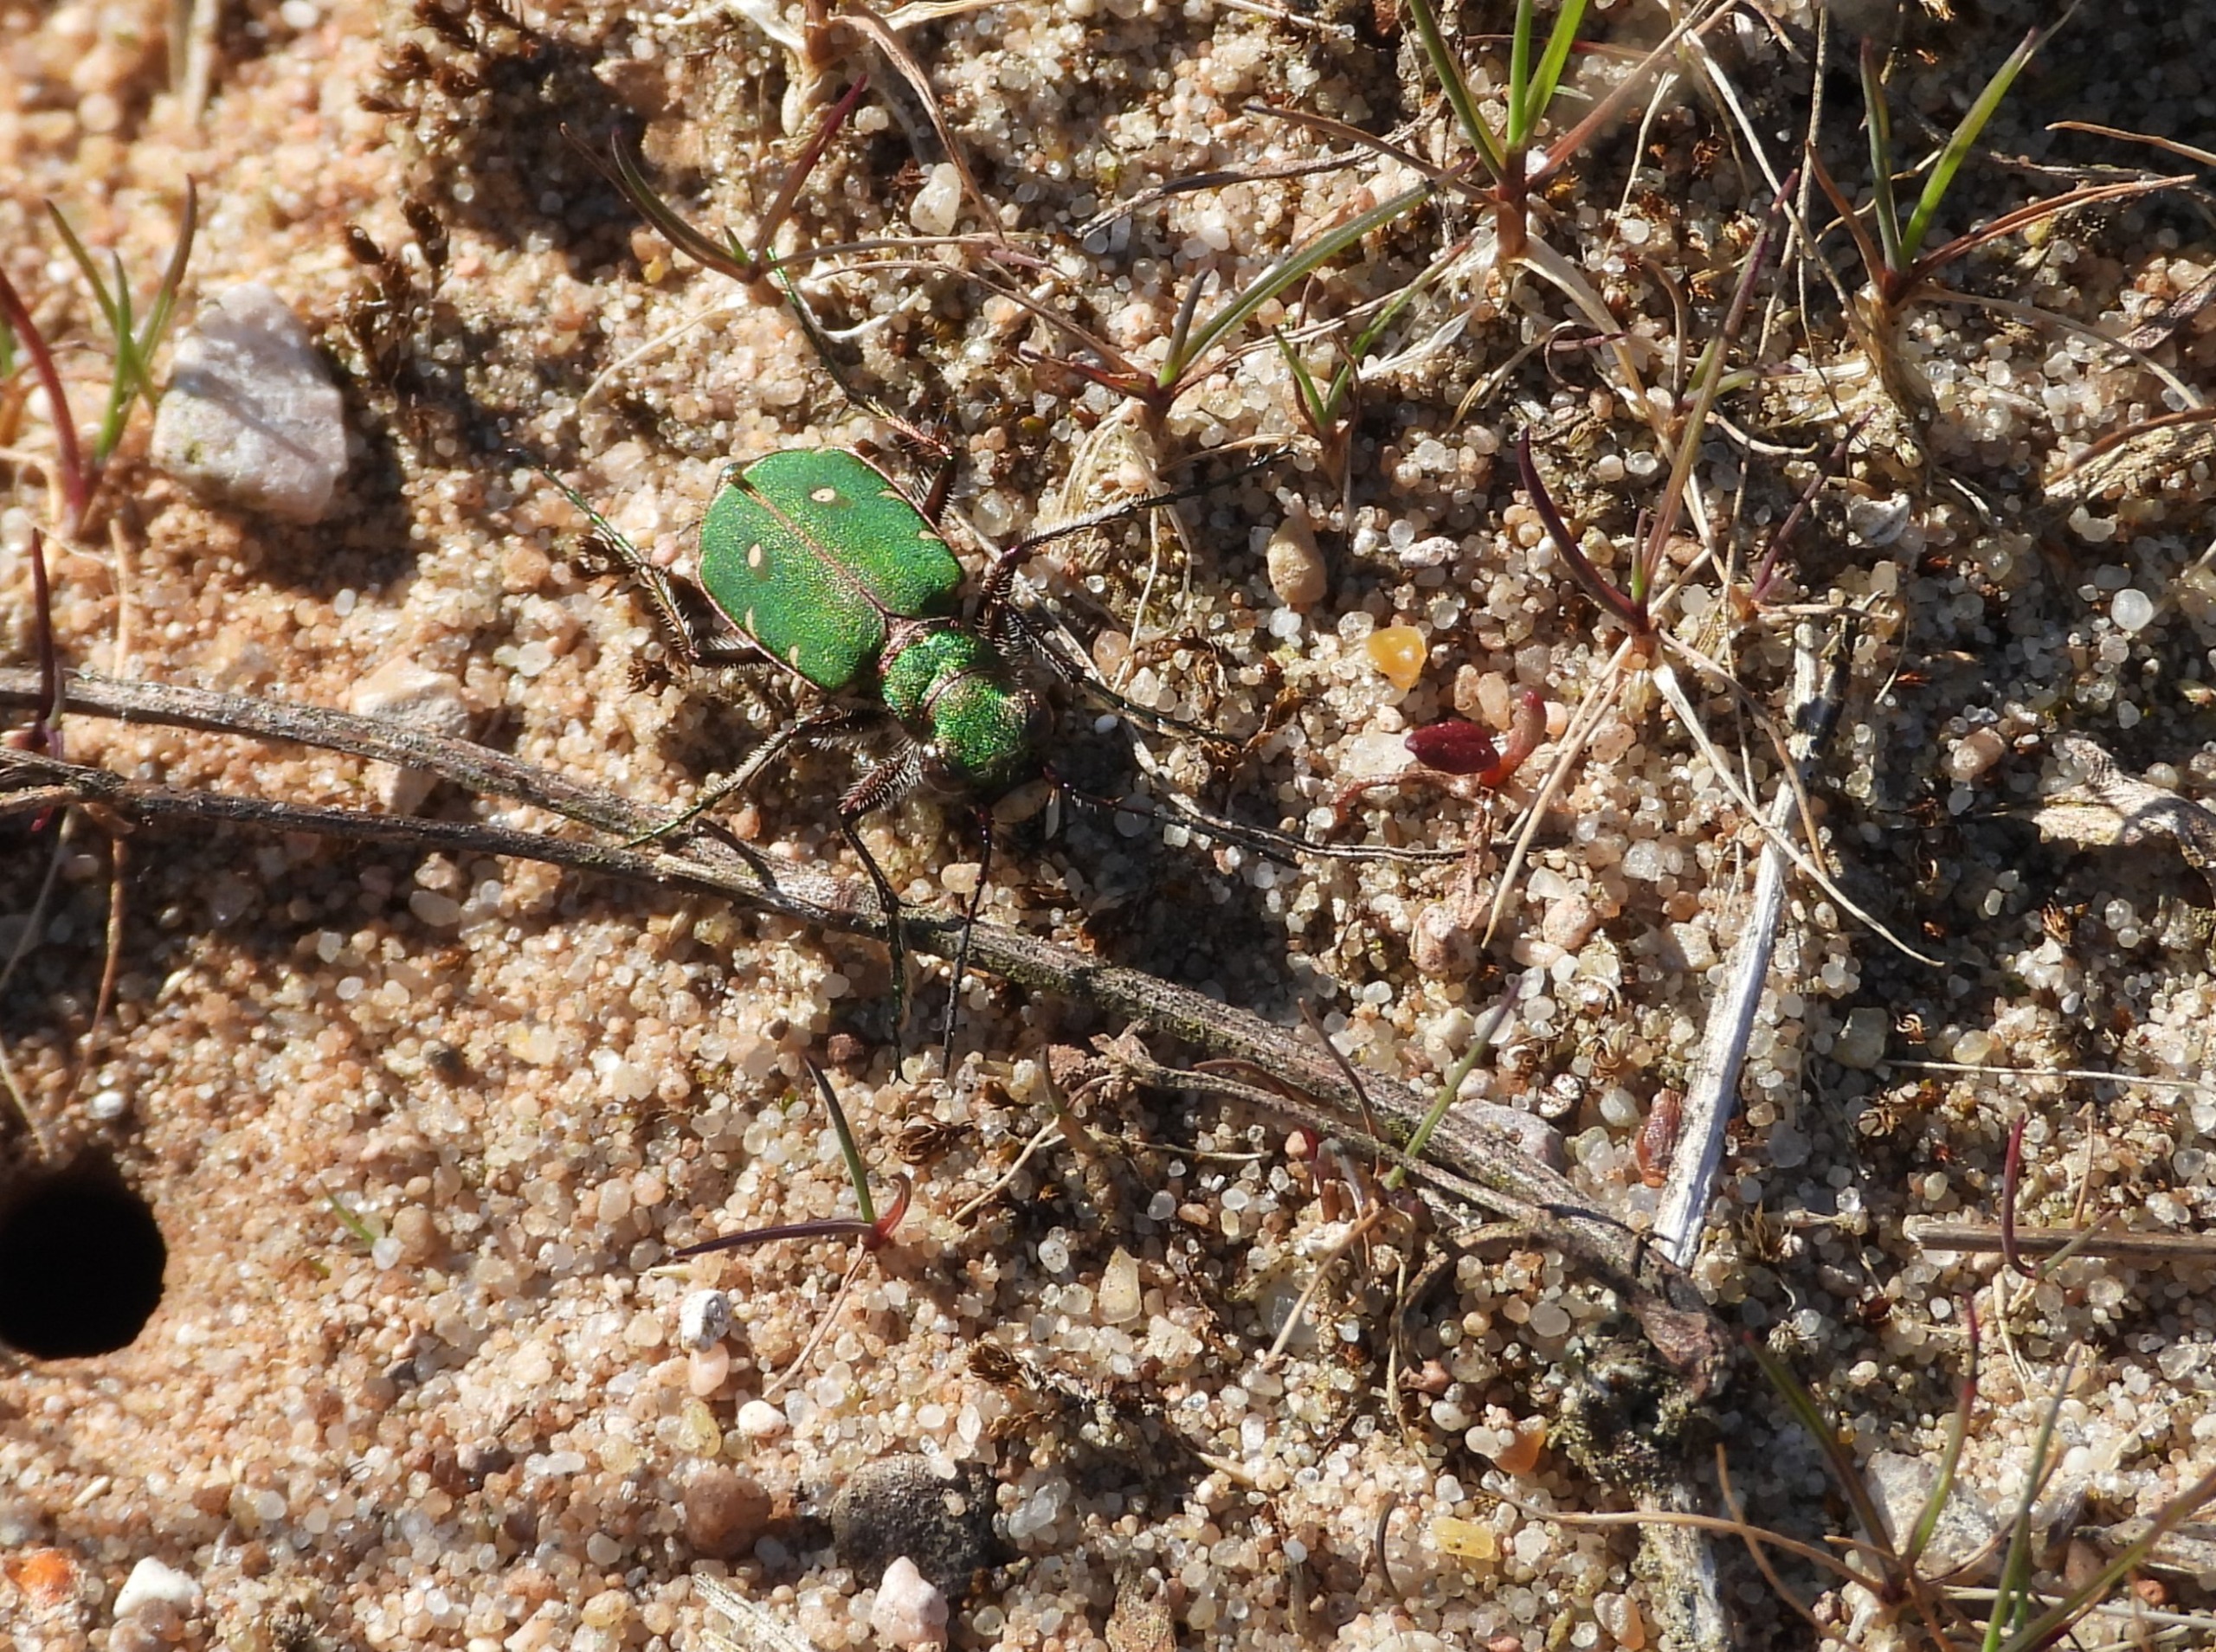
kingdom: Animalia
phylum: Arthropoda
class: Insecta
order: Coleoptera
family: Carabidae
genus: Cicindela
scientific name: Cicindela campestris
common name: Grøn sandspringer
